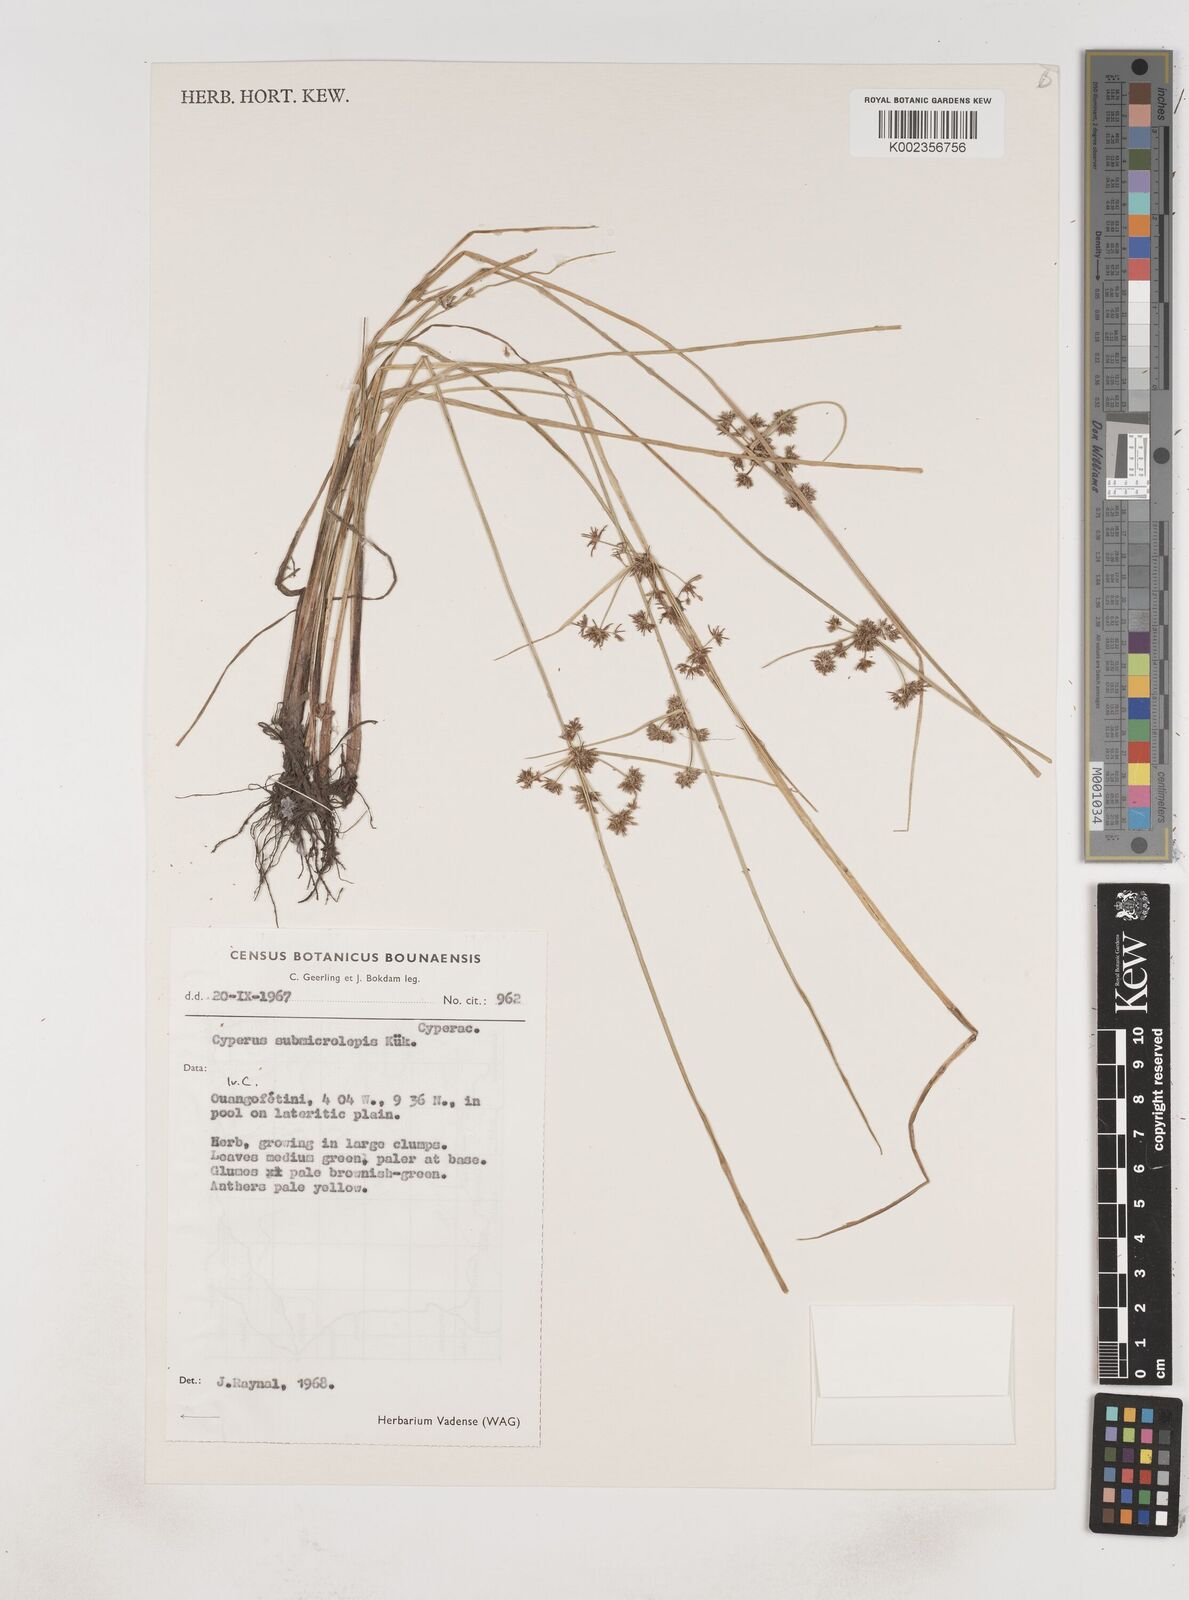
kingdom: Plantae
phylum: Tracheophyta
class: Liliopsida
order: Poales
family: Cyperaceae
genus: Cyperus
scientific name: Cyperus submicrolepis
